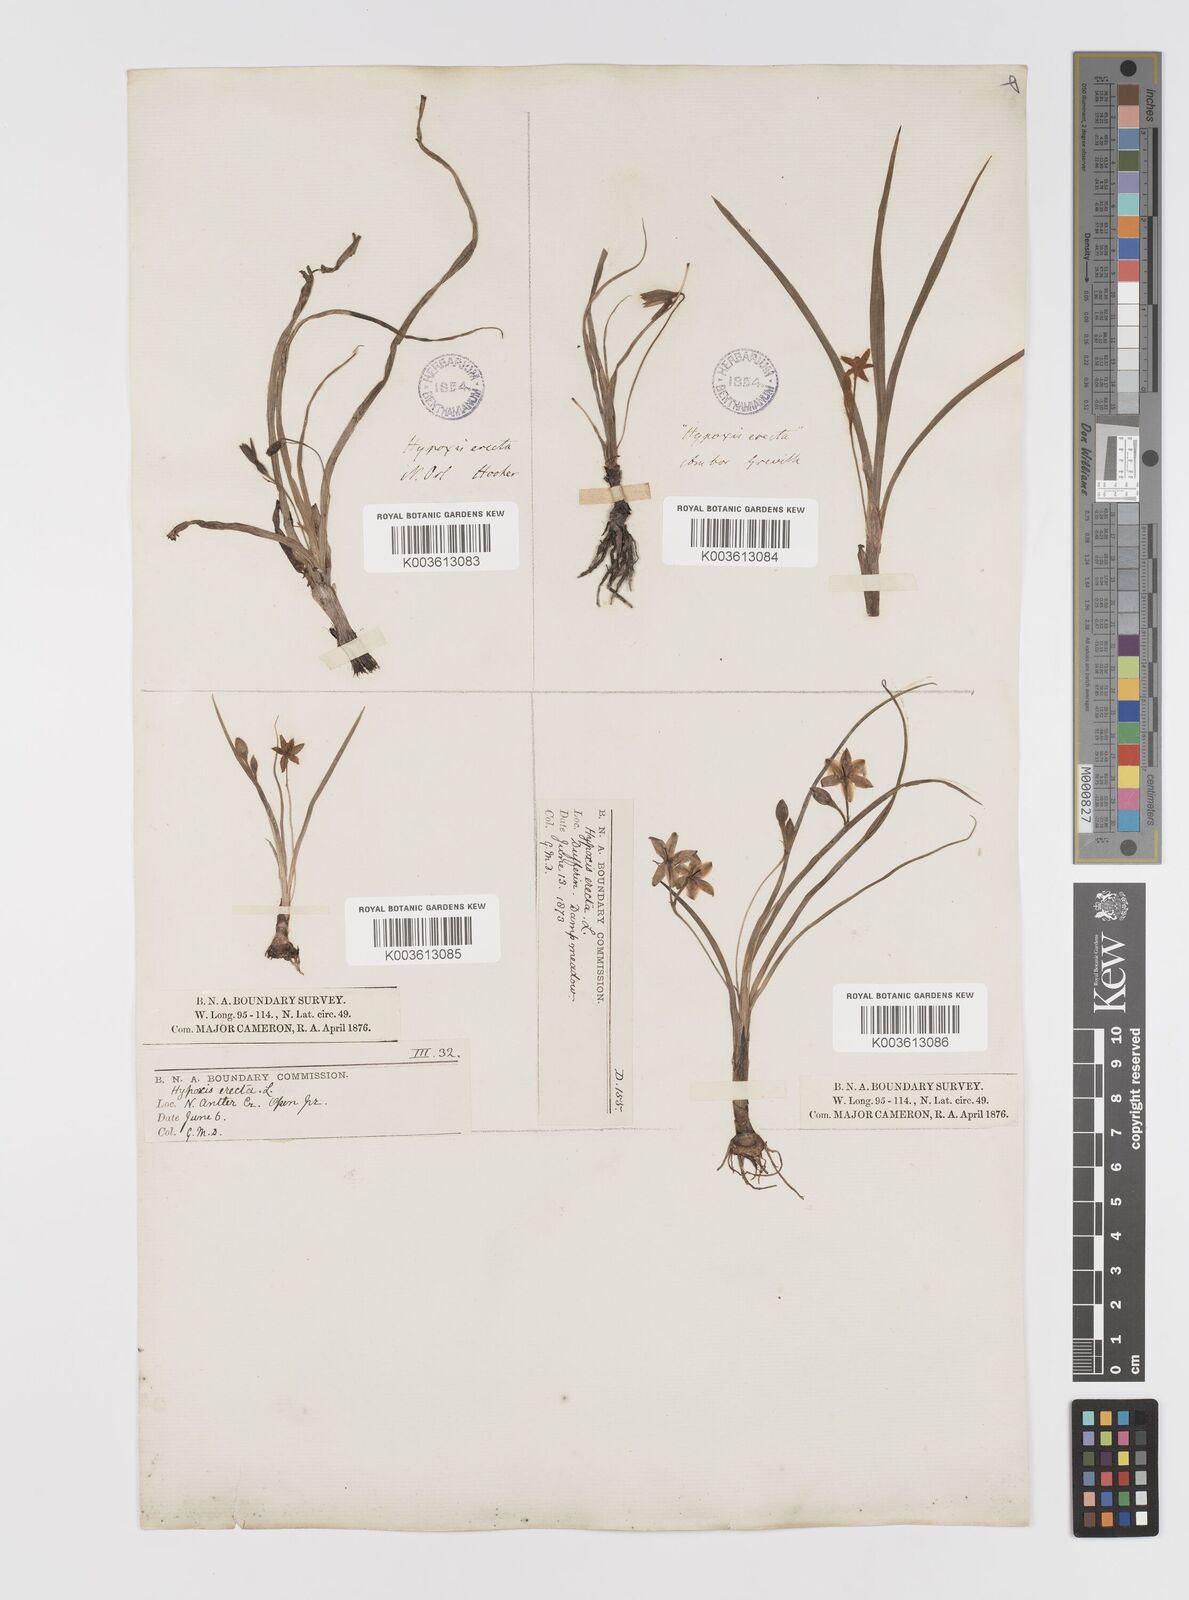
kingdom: Plantae
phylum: Tracheophyta
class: Liliopsida
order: Asparagales
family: Hypoxidaceae
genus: Hypoxis
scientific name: Hypoxis hirsuta
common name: Common goldstar
